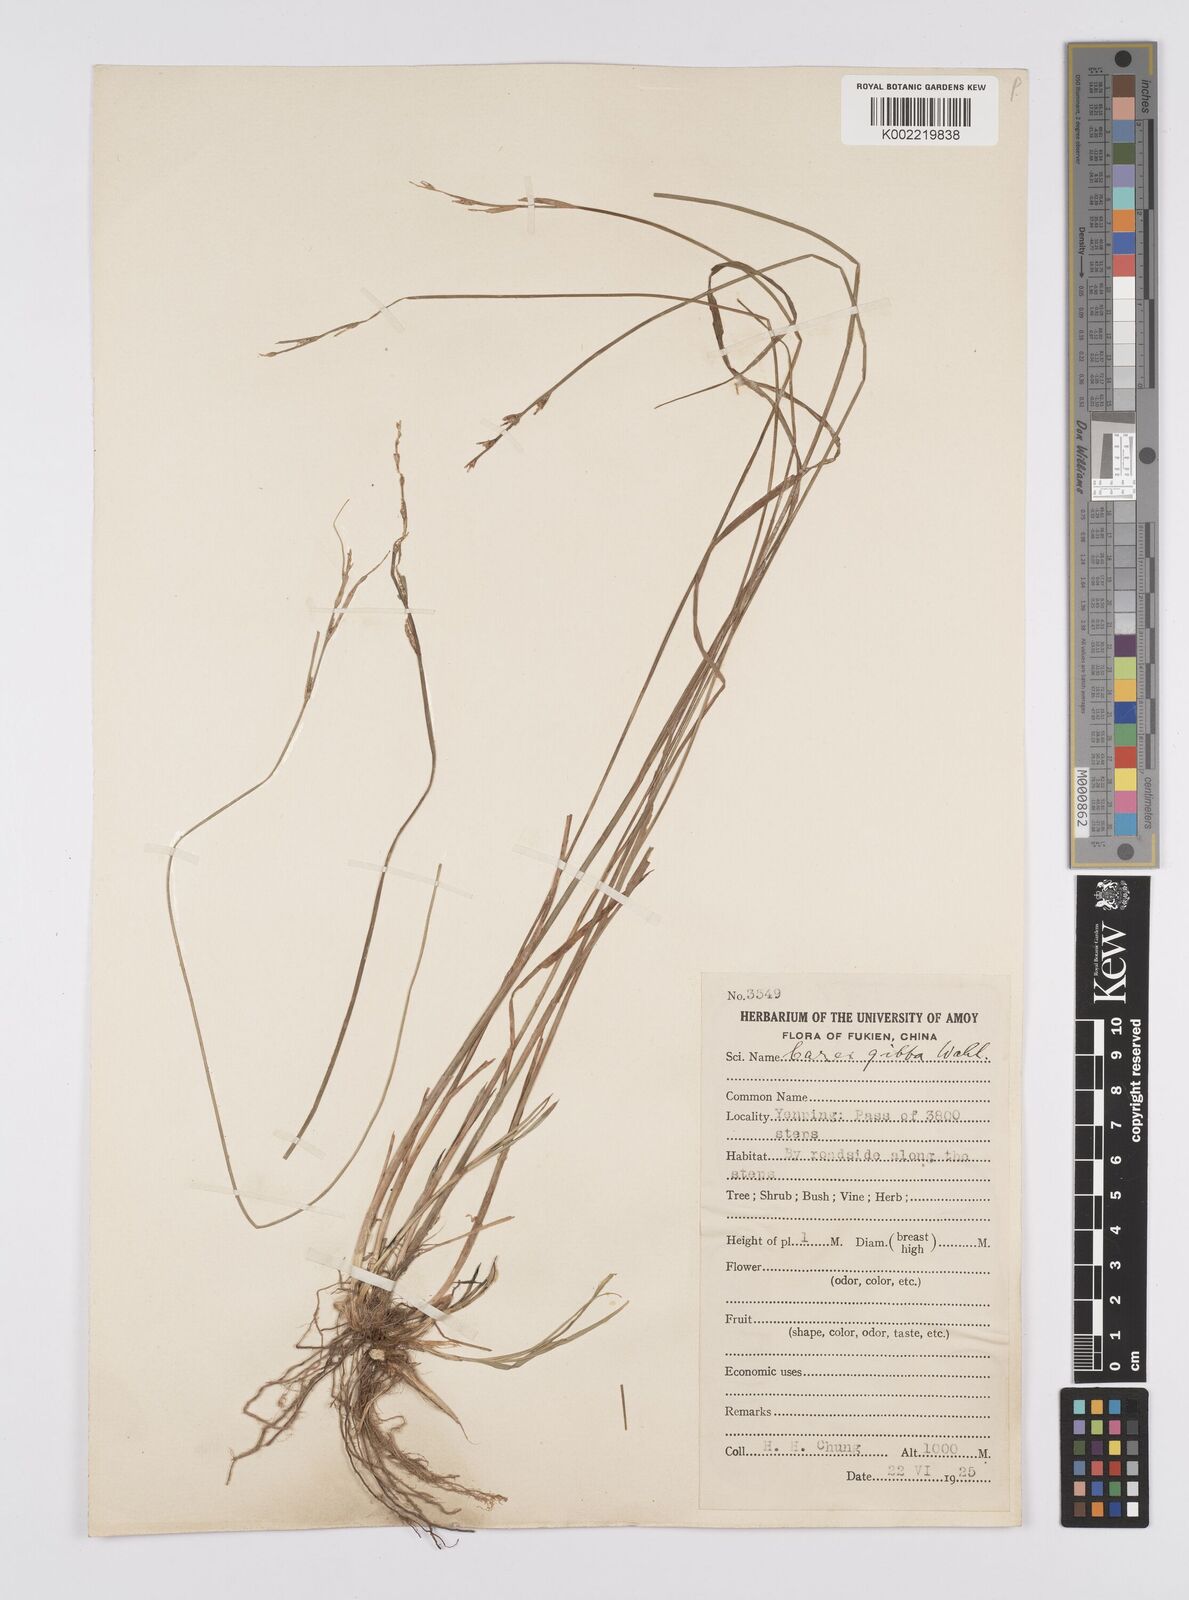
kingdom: Plantae
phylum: Tracheophyta
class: Liliopsida
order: Poales
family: Cyperaceae
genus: Carex
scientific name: Carex gibba
